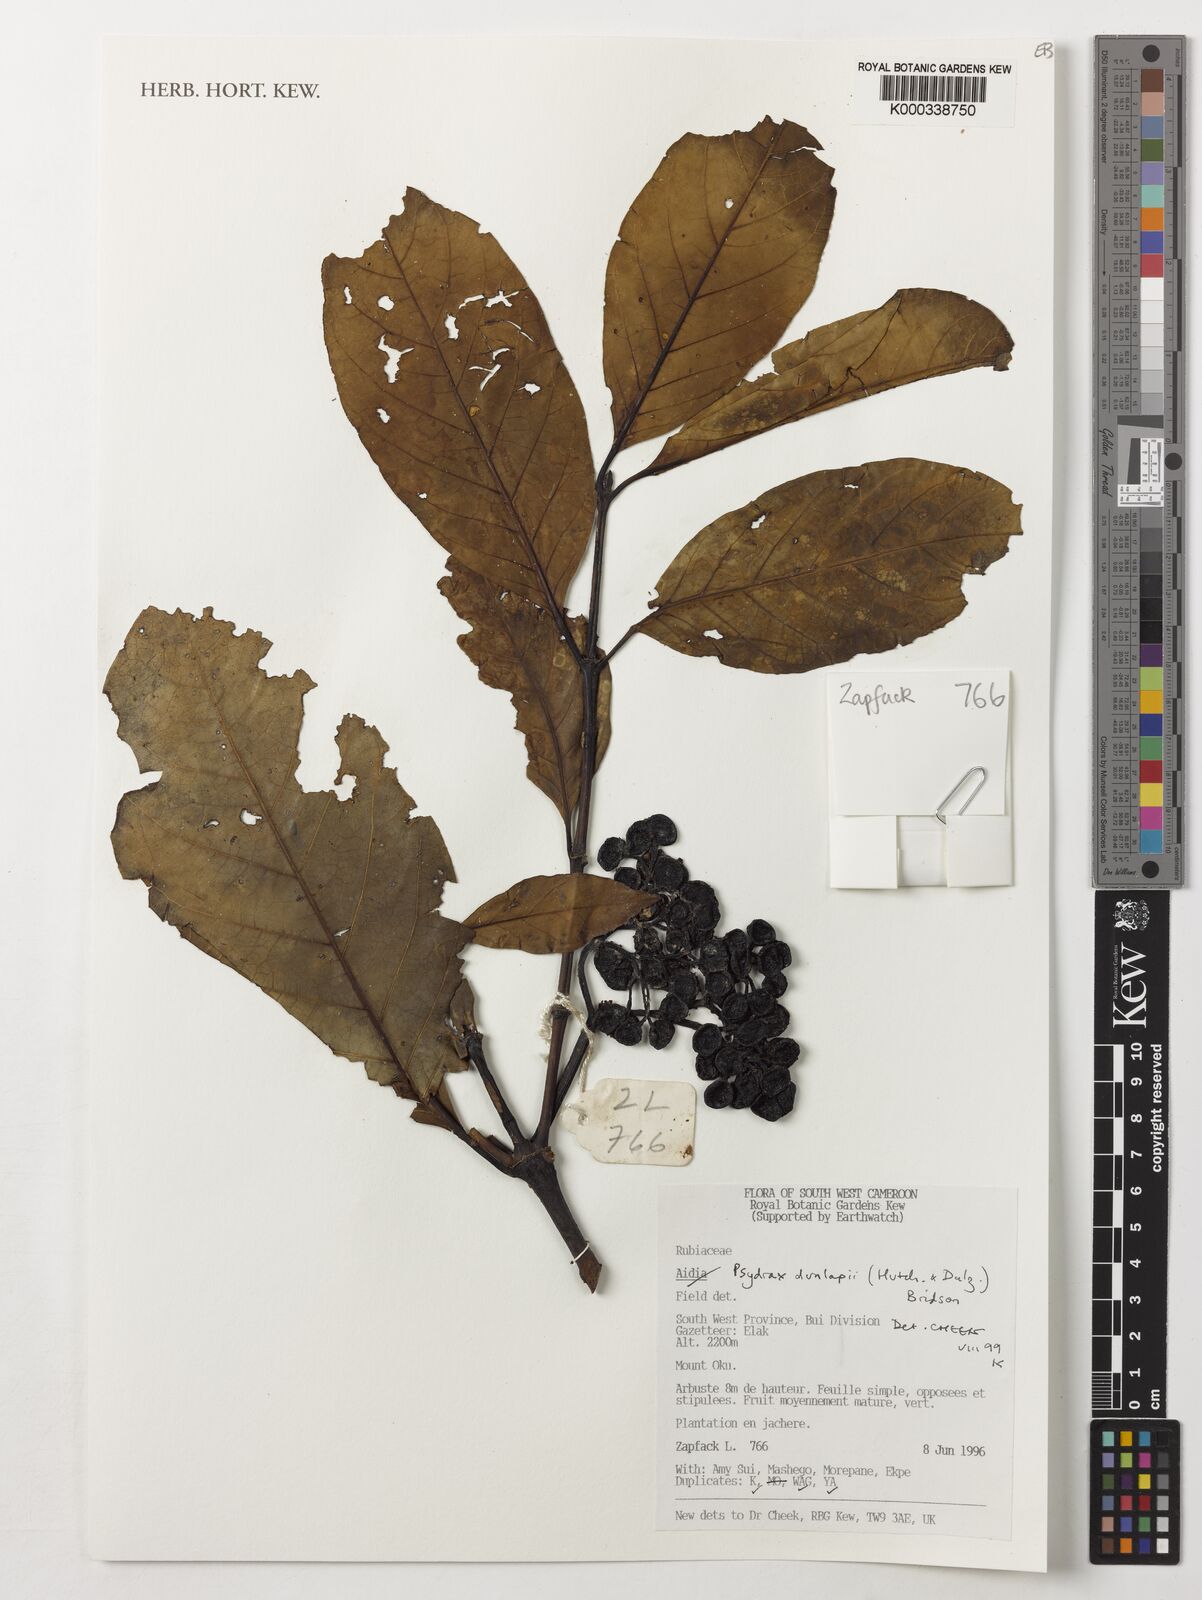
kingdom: Plantae
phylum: Tracheophyta
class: Magnoliopsida
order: Gentianales
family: Rubiaceae
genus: Psydrax
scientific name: Psydrax dunlapii
